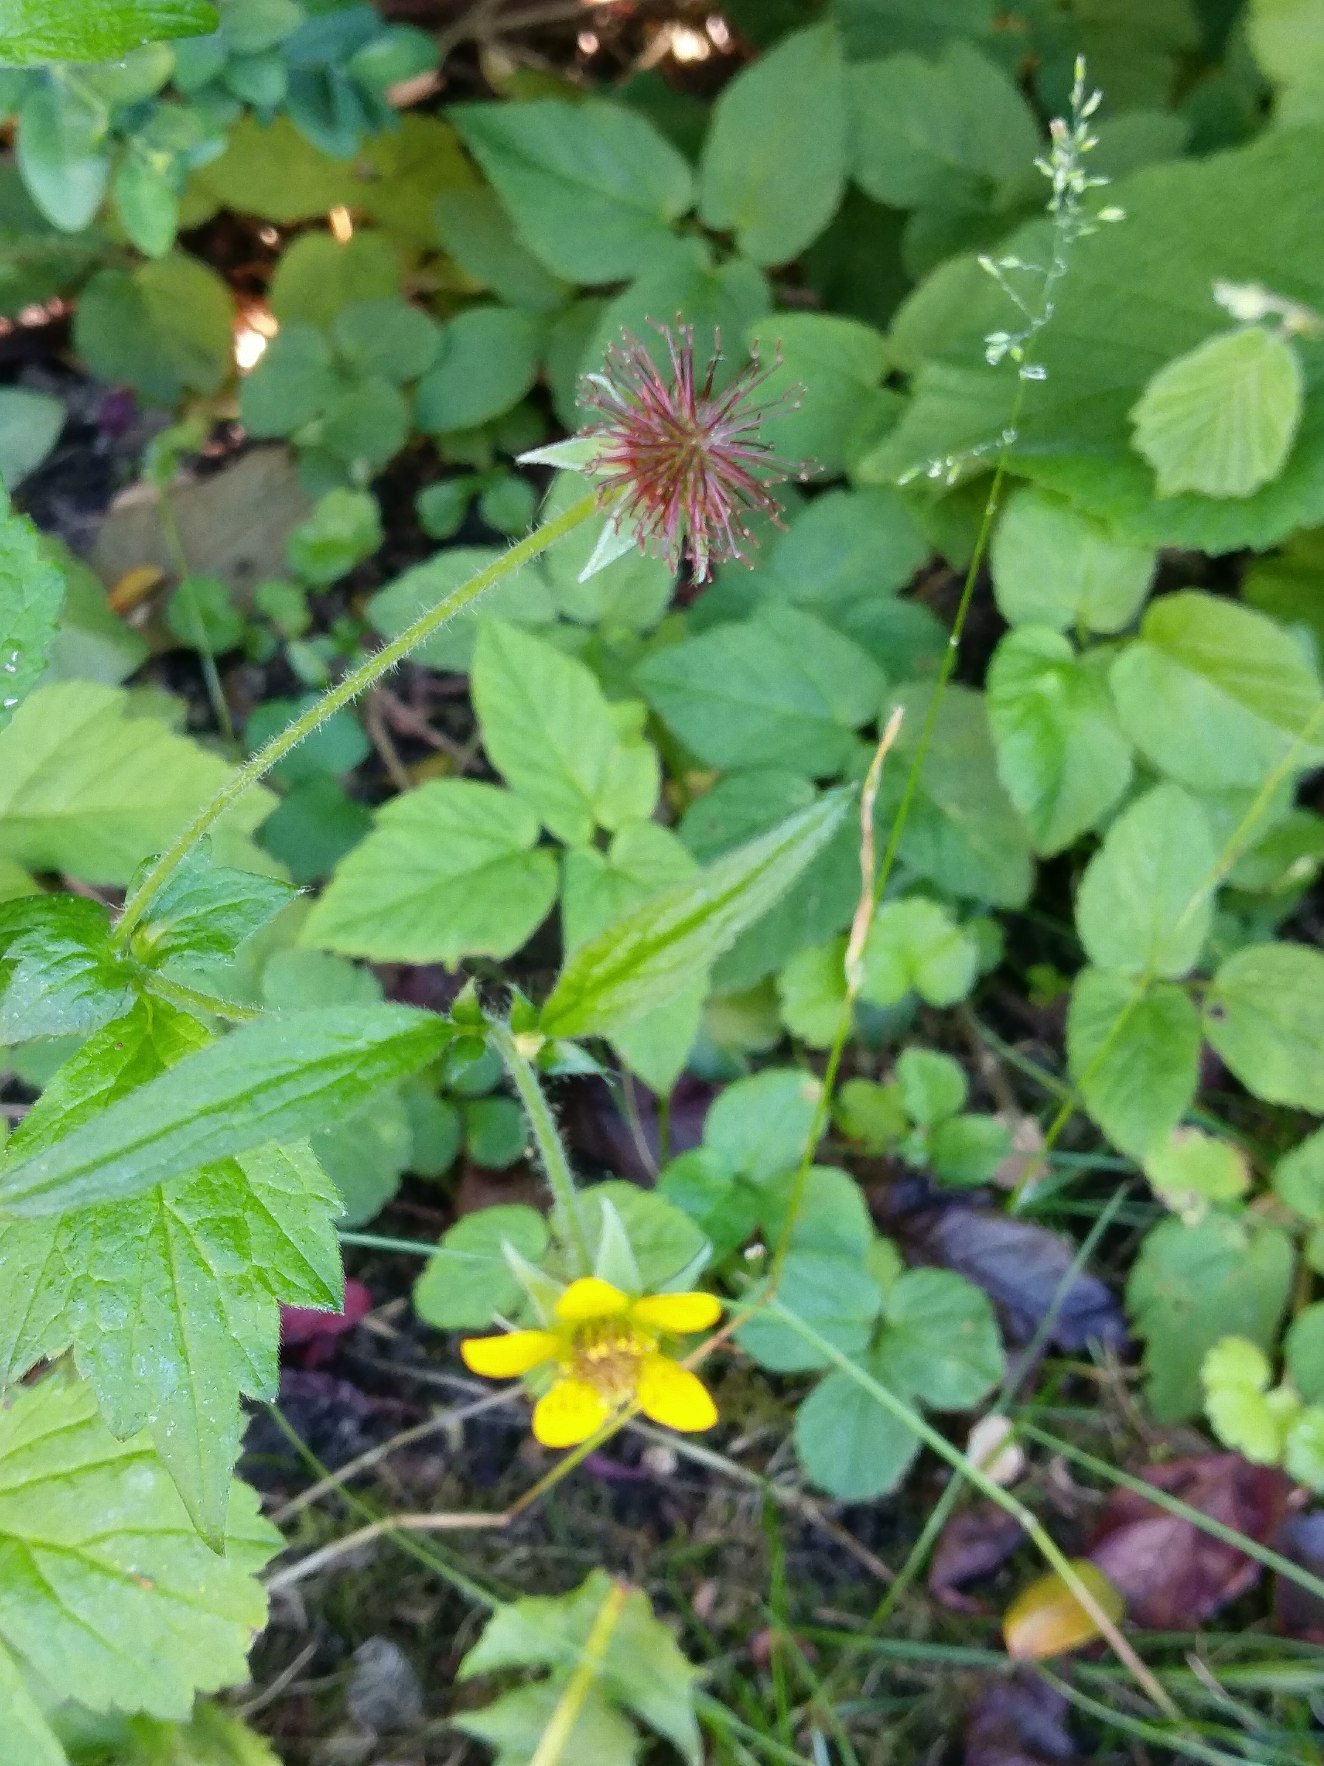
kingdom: Plantae
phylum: Tracheophyta
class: Magnoliopsida
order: Rosales
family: Rosaceae
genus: Geum
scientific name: Geum urbanum
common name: Feber-nellikerod
